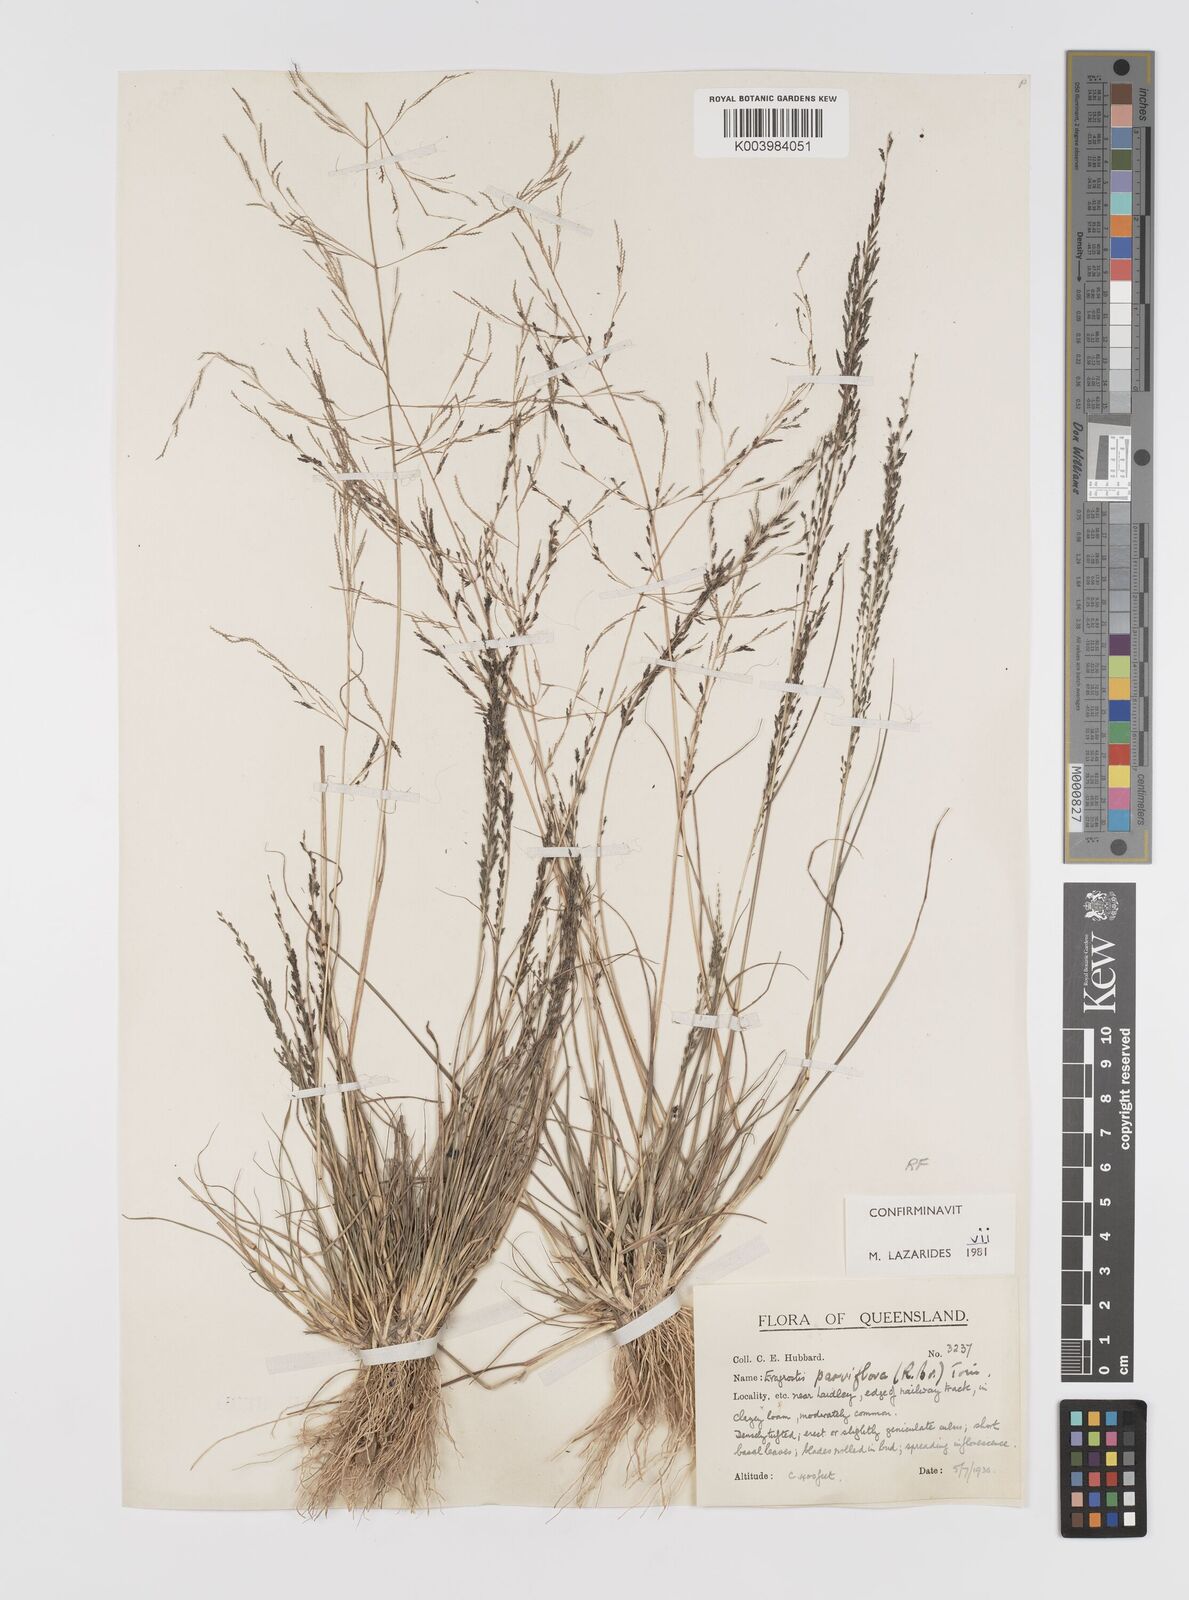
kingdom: Plantae
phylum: Tracheophyta
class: Liliopsida
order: Poales
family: Poaceae
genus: Eragrostis
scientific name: Eragrostis parviflora
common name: Weeping love-grass
